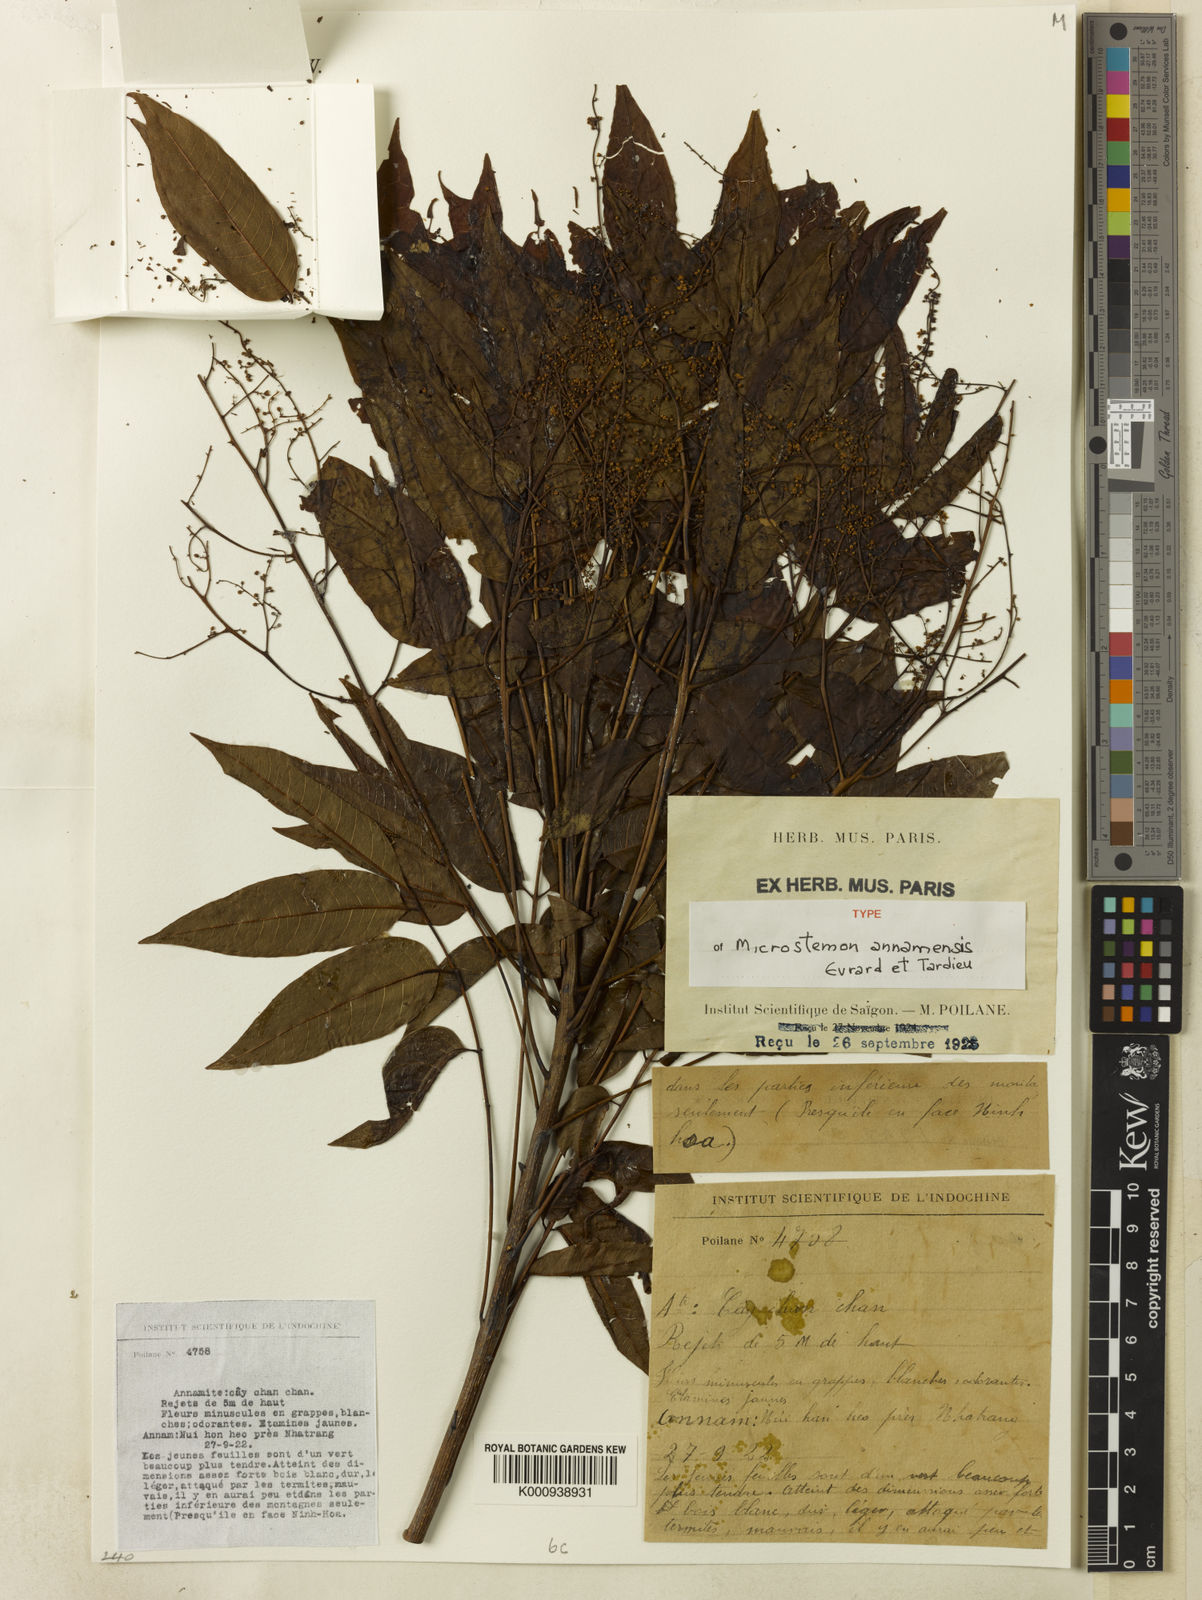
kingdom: Plantae
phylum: Tracheophyta
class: Magnoliopsida
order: Sapindales
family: Anacardiaceae
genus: Pentaspadon
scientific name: Pentaspadon annamense
